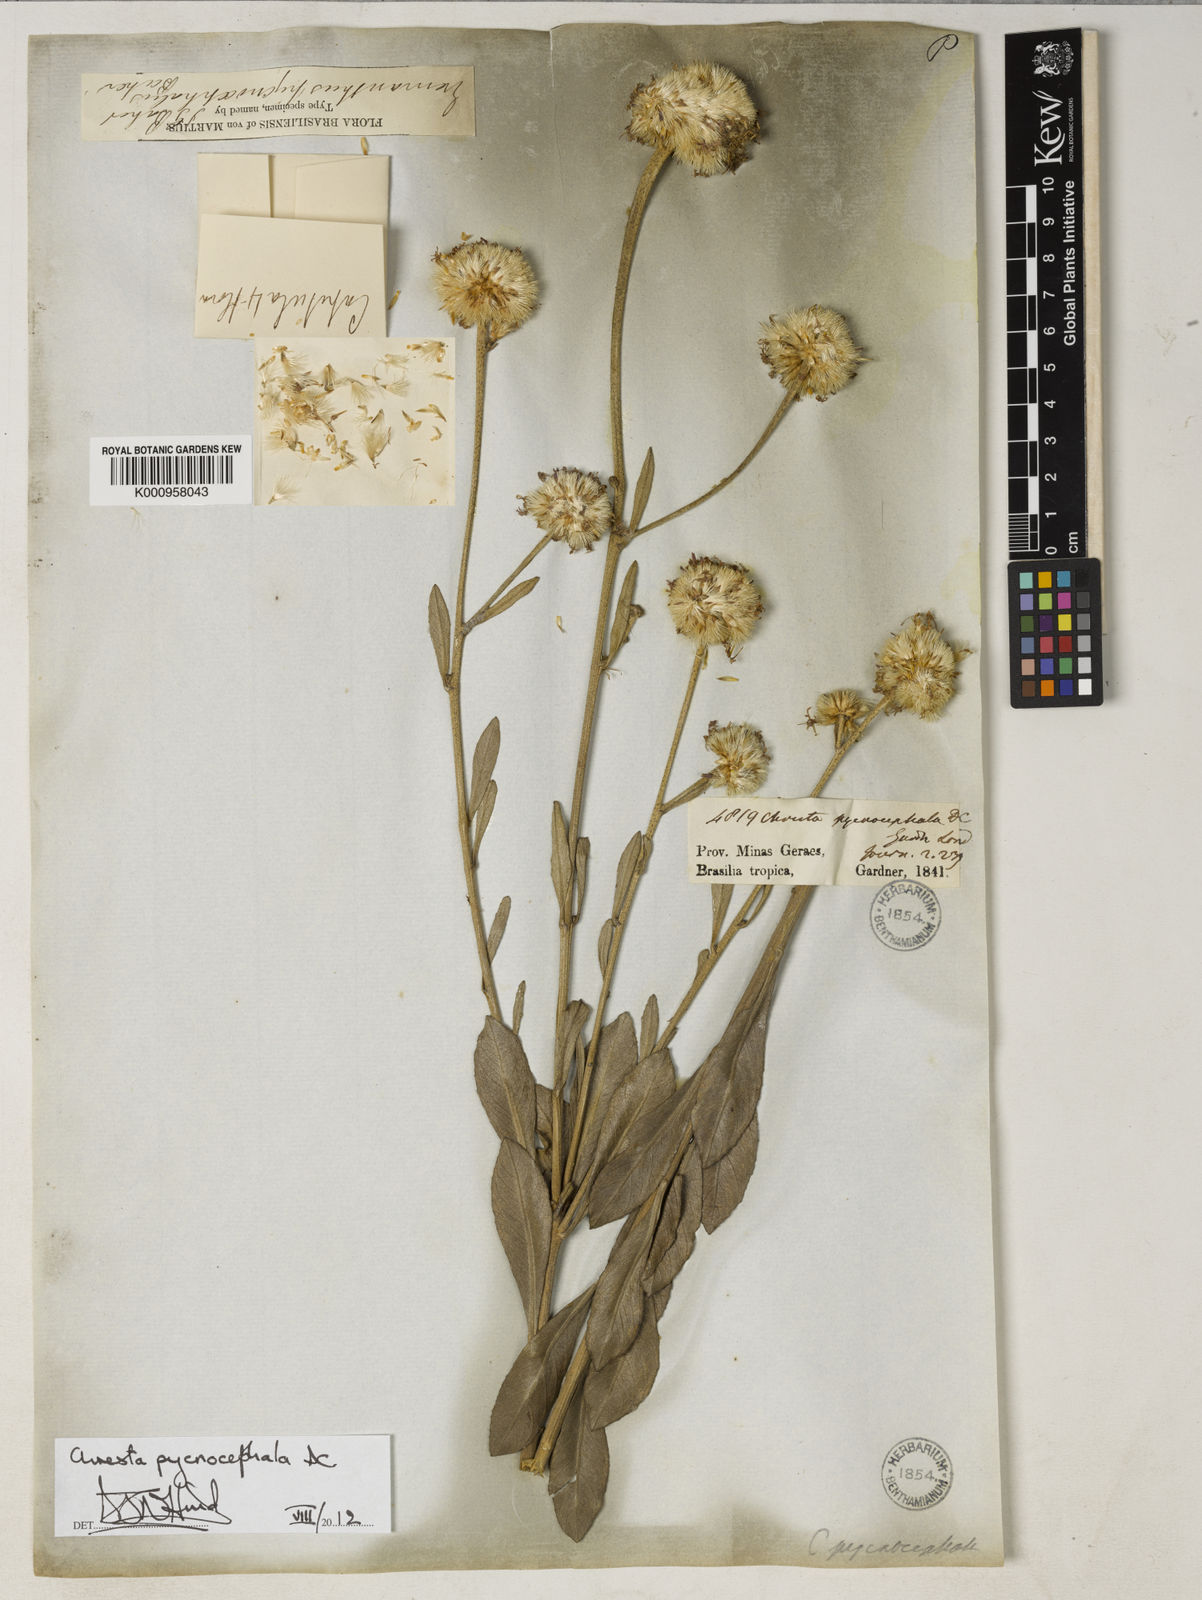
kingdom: Plantae
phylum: Tracheophyta
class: Magnoliopsida
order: Asterales
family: Asteraceae
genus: Chresta
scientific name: Chresta pycnocephala
